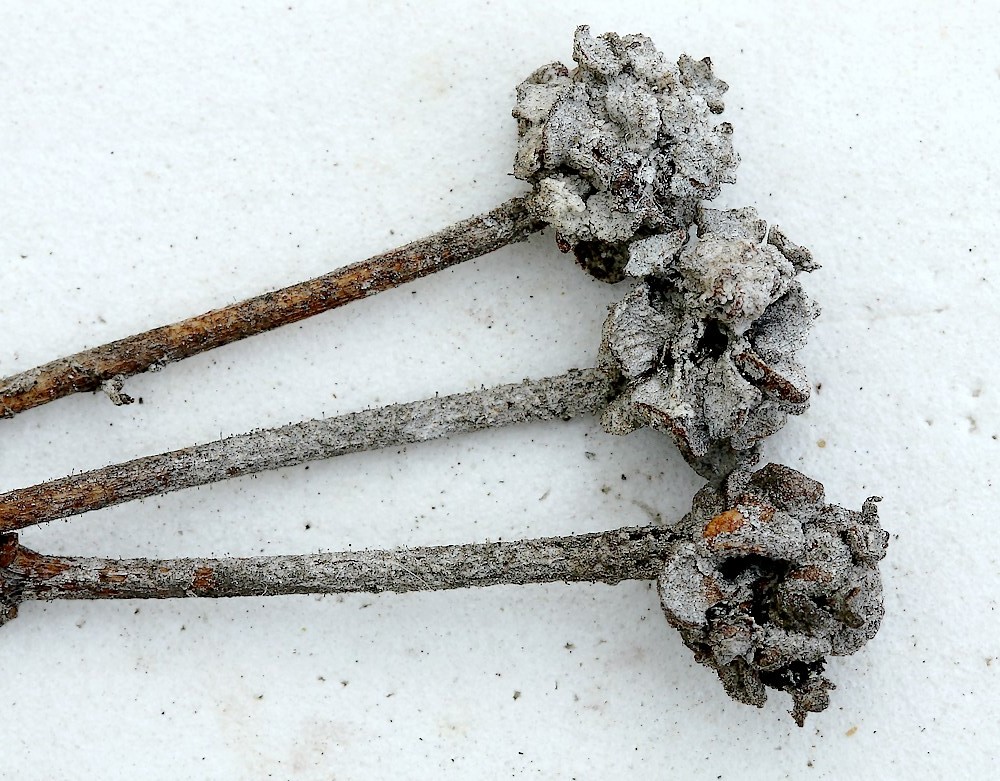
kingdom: Fungi
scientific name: Fungi
